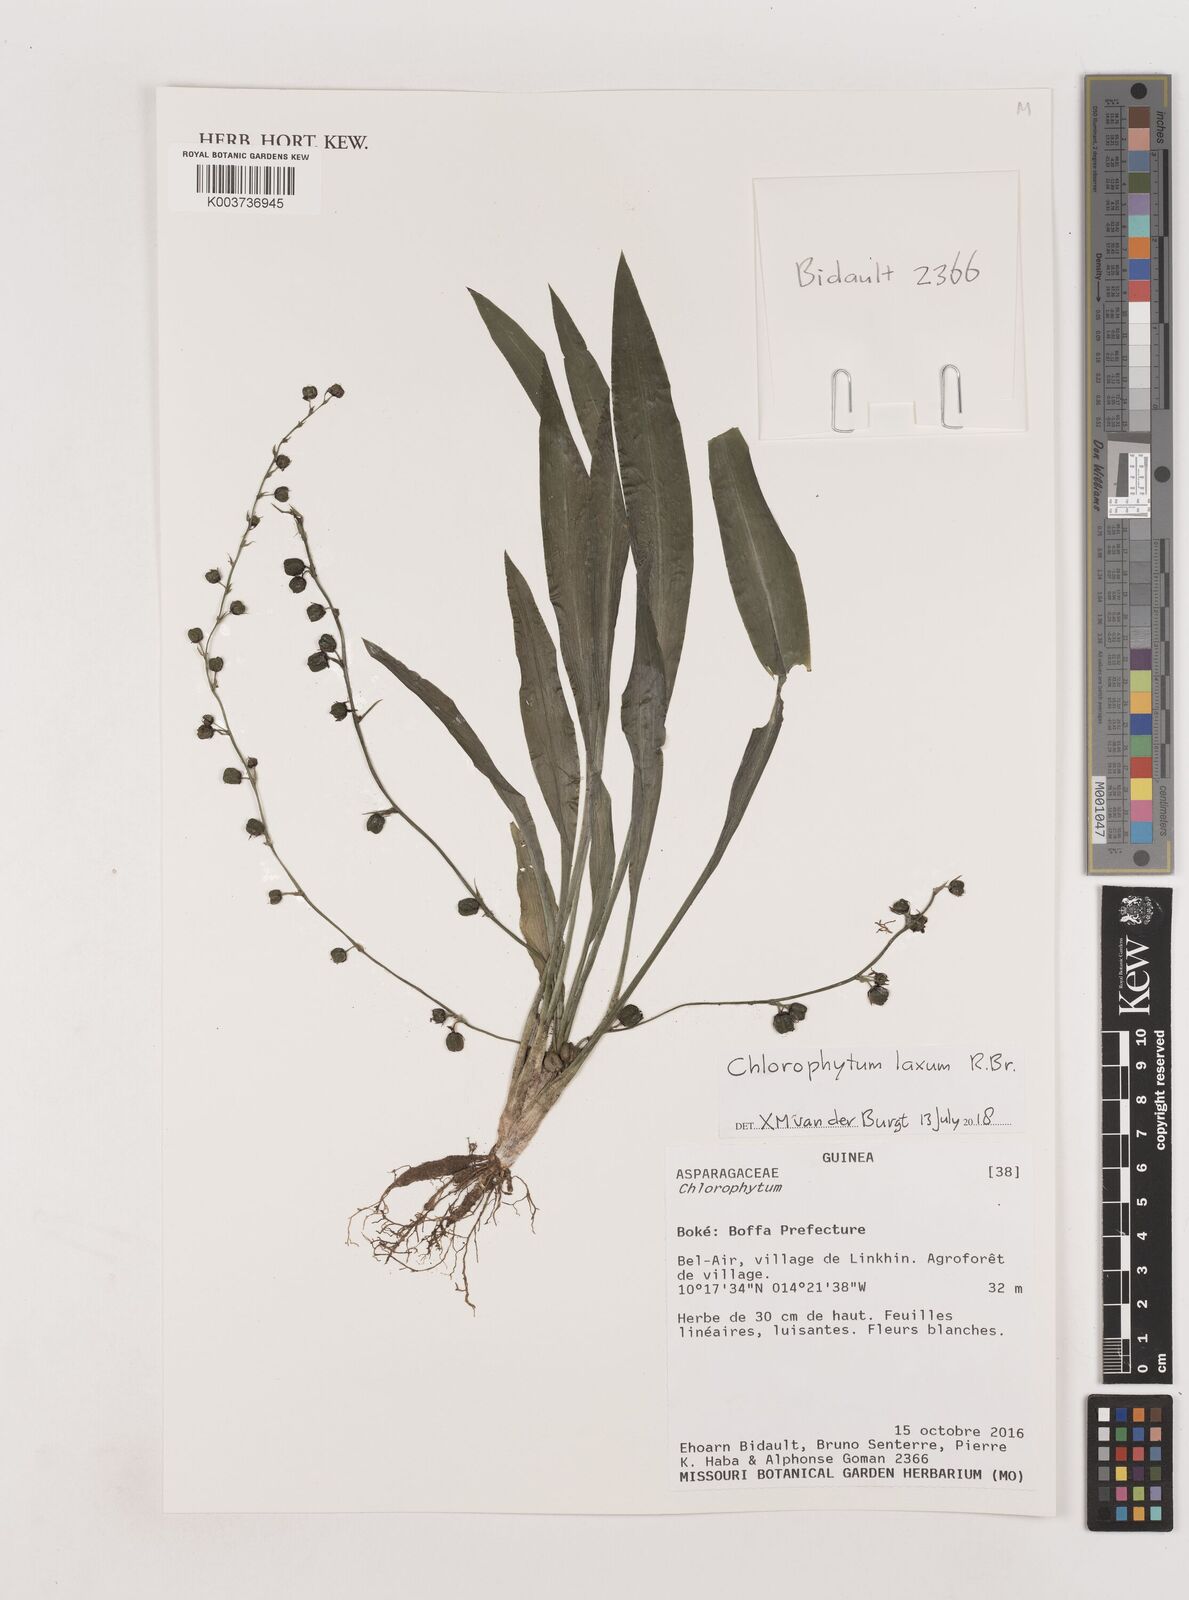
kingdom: Plantae
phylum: Tracheophyta
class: Liliopsida
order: Asparagales
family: Asparagaceae
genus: Chlorophytum
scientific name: Chlorophytum laxum
